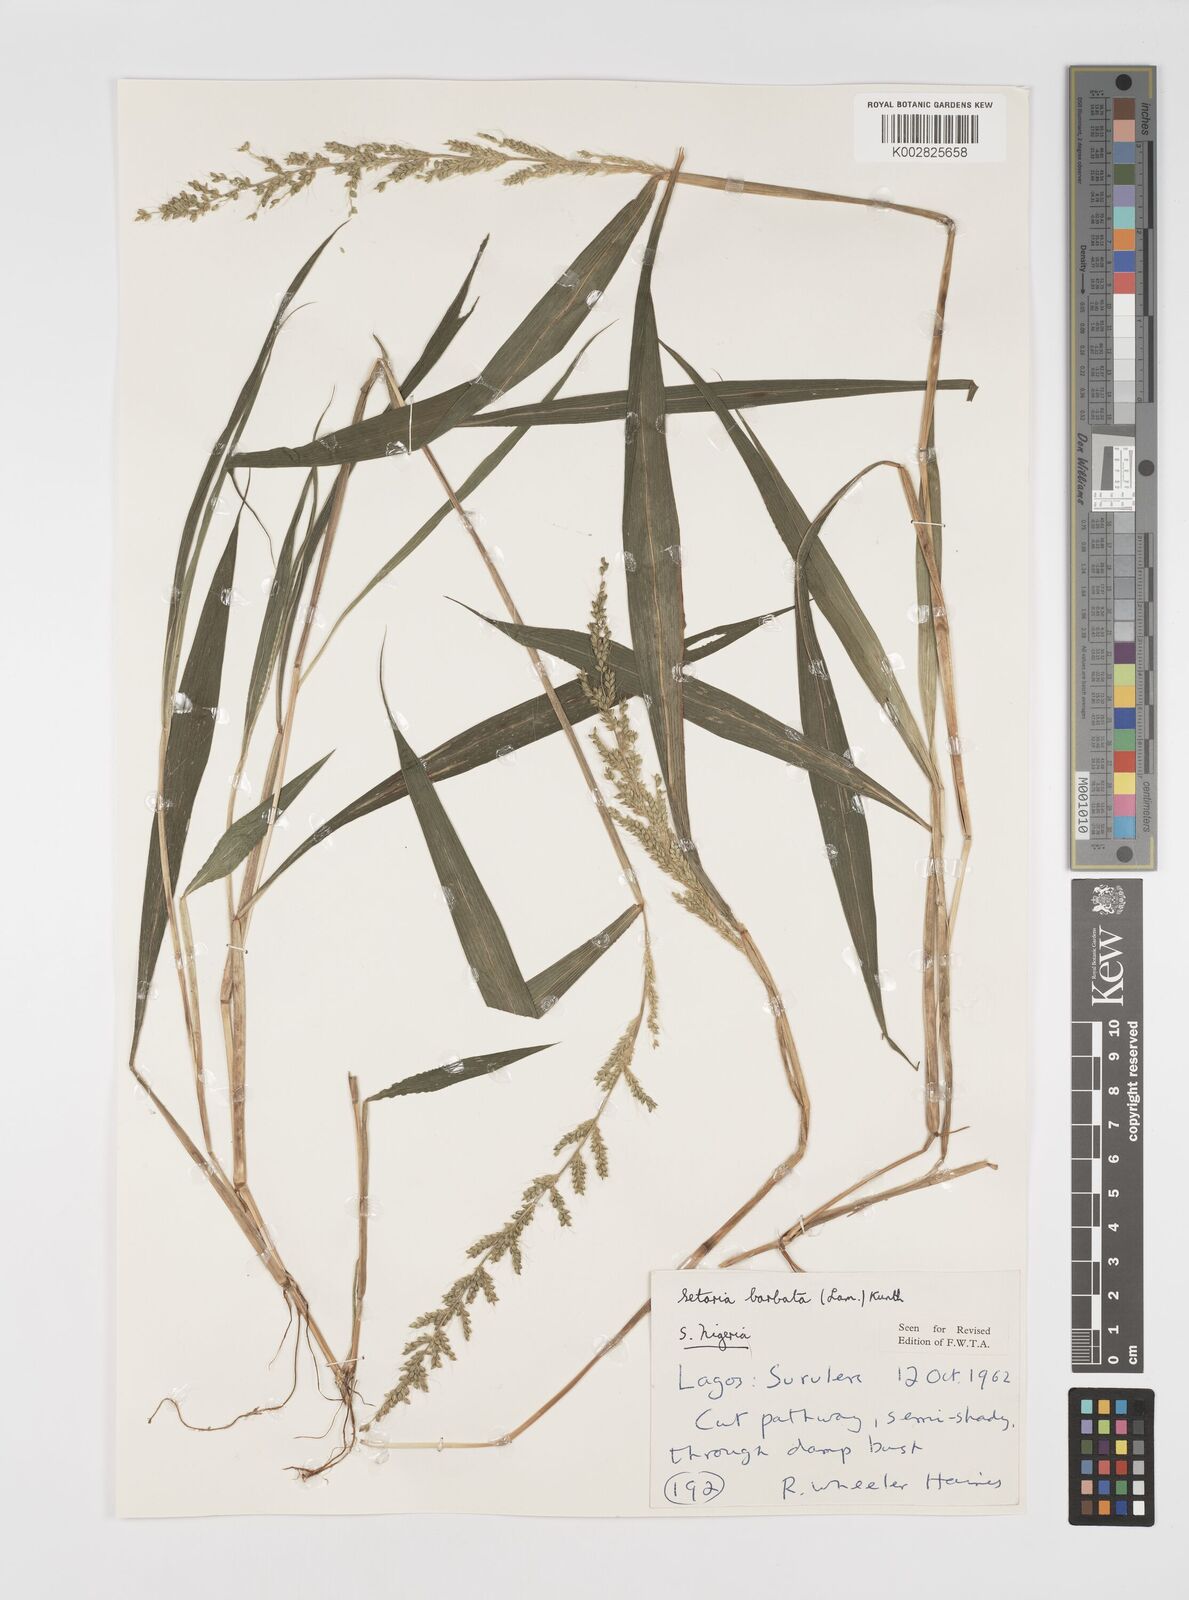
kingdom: Plantae
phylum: Tracheophyta
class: Liliopsida
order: Poales
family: Poaceae
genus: Setaria
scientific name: Setaria barbata
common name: East indian bristlegrass
